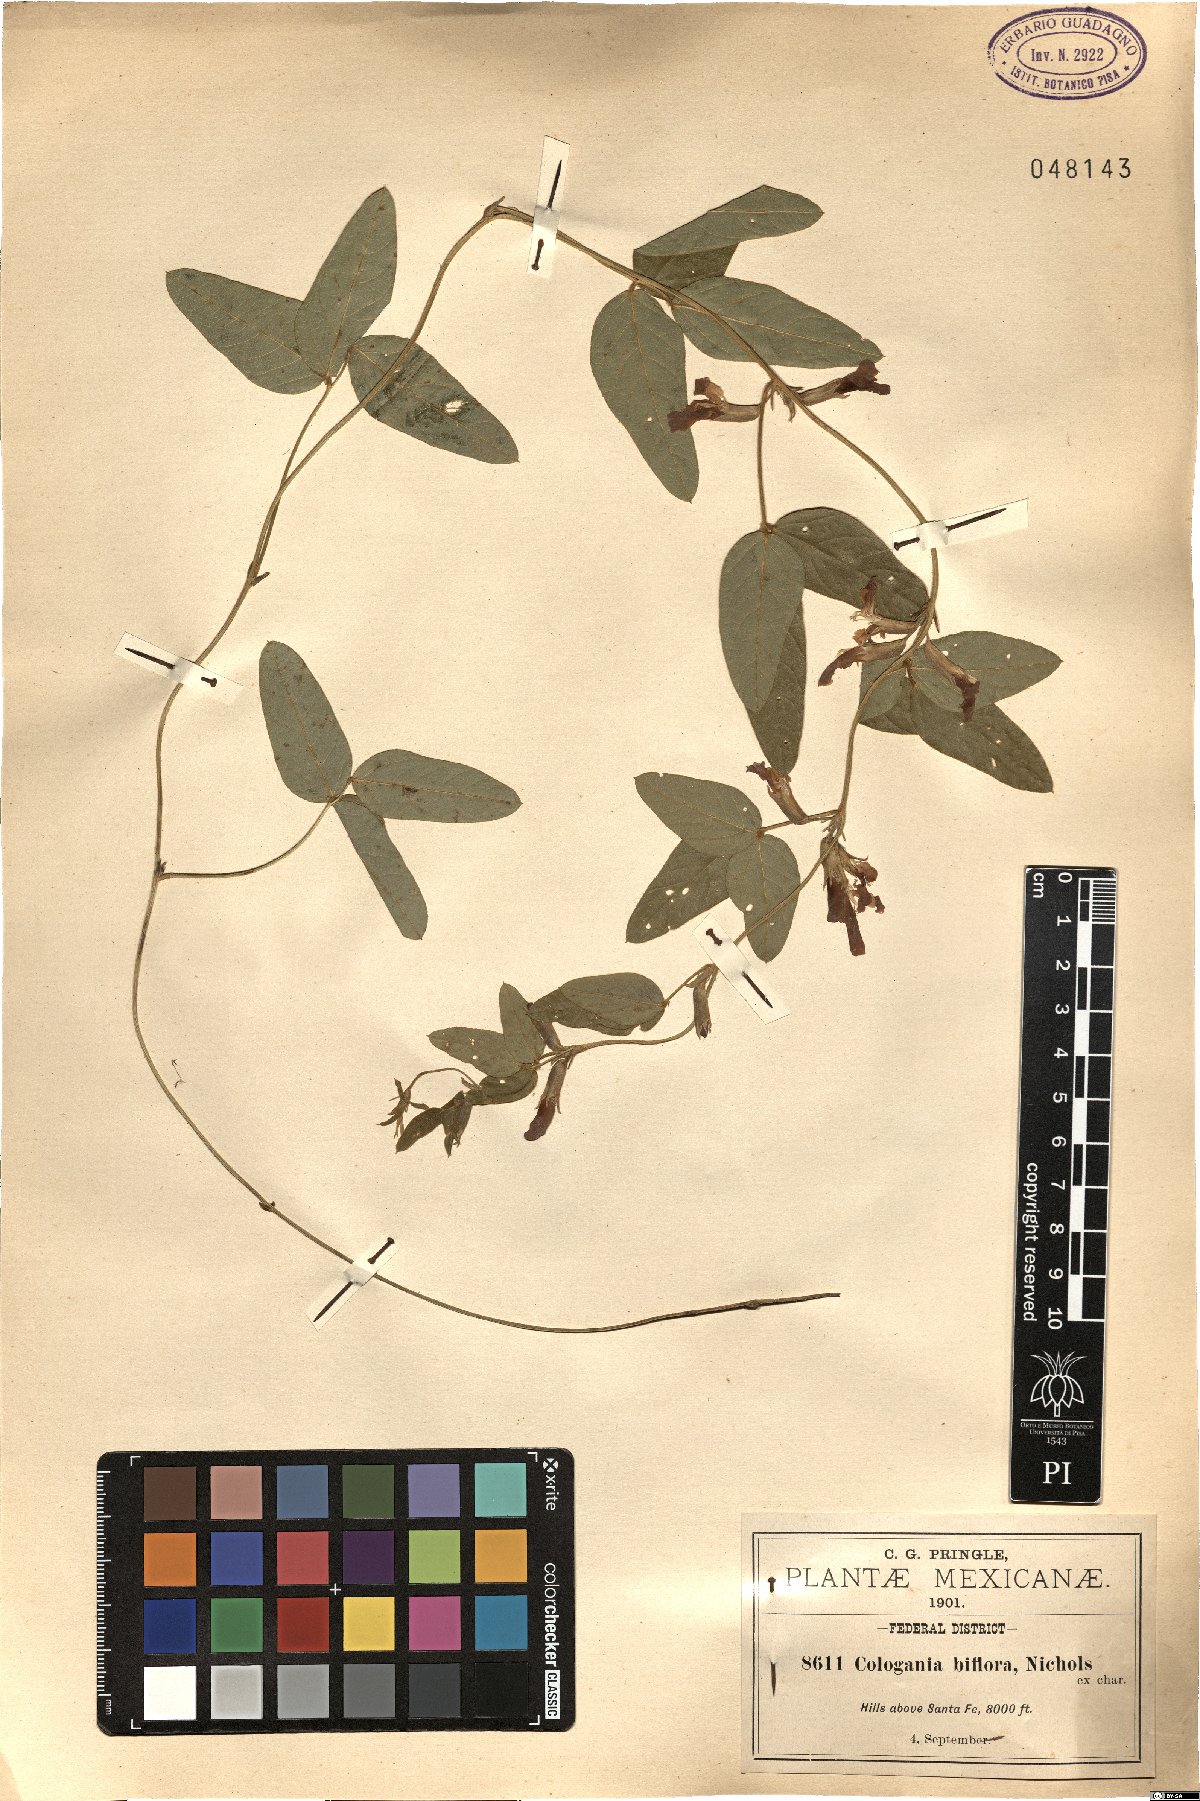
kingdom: Plantae
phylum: Tracheophyta
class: Magnoliopsida
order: Fabales
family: Fabaceae
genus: Cologania
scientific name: Cologania
